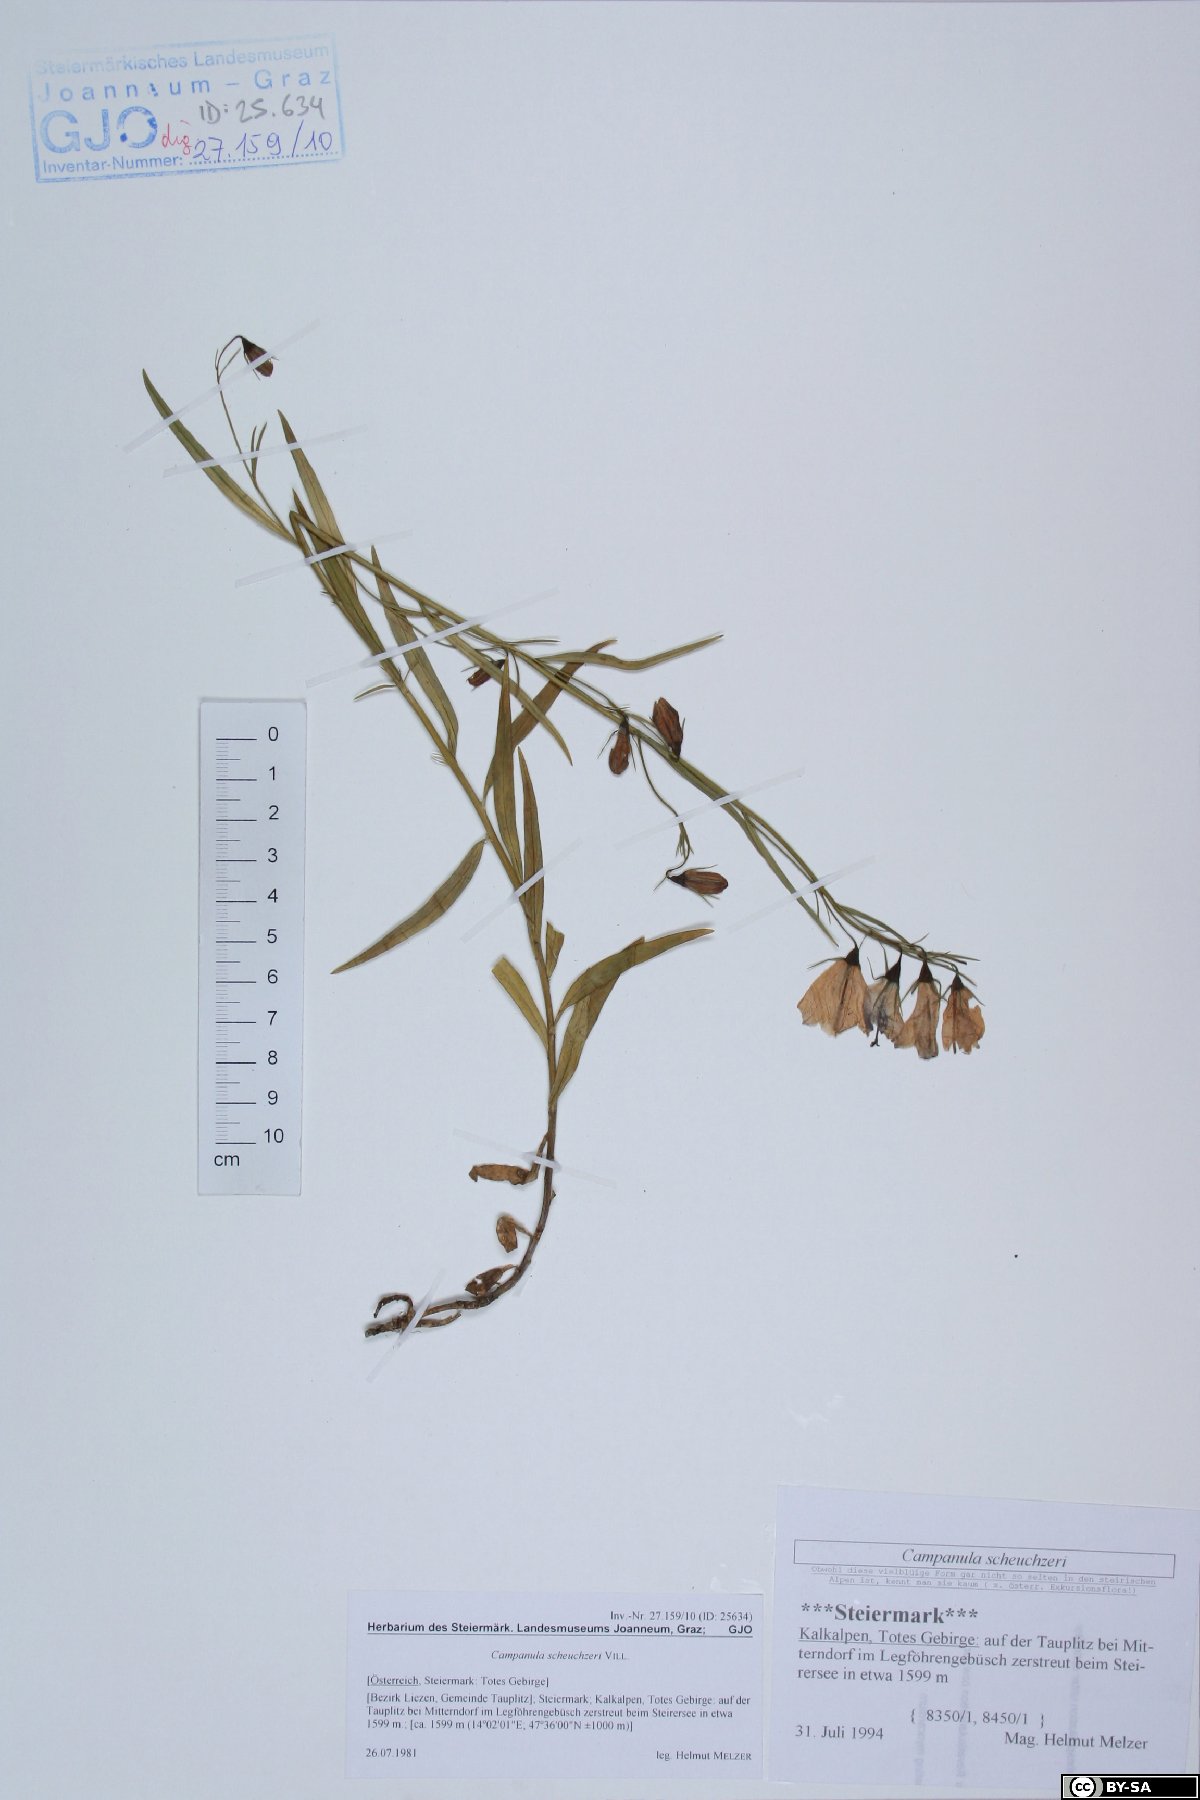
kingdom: Plantae
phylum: Tracheophyta
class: Magnoliopsida
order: Asterales
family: Campanulaceae
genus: Campanula
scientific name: Campanula scheuchzeri
